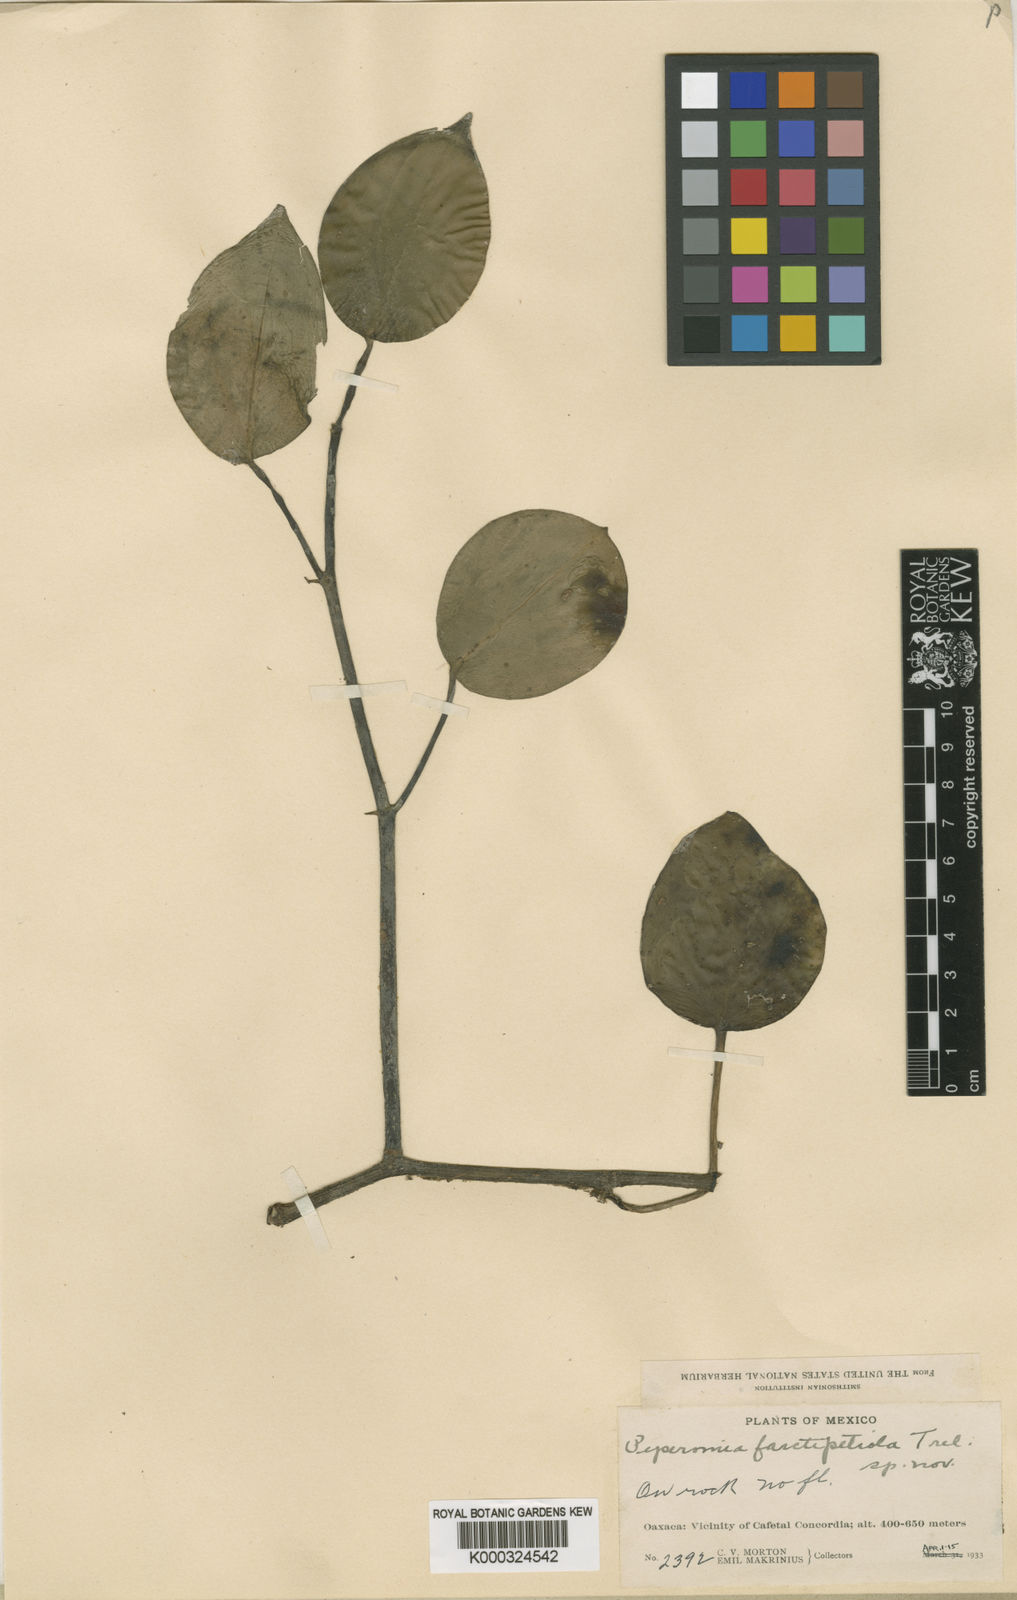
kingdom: Plantae
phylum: Tracheophyta
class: Magnoliopsida
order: Piperales
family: Piperaceae
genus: Peperomia
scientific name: Peperomia farctifolia
